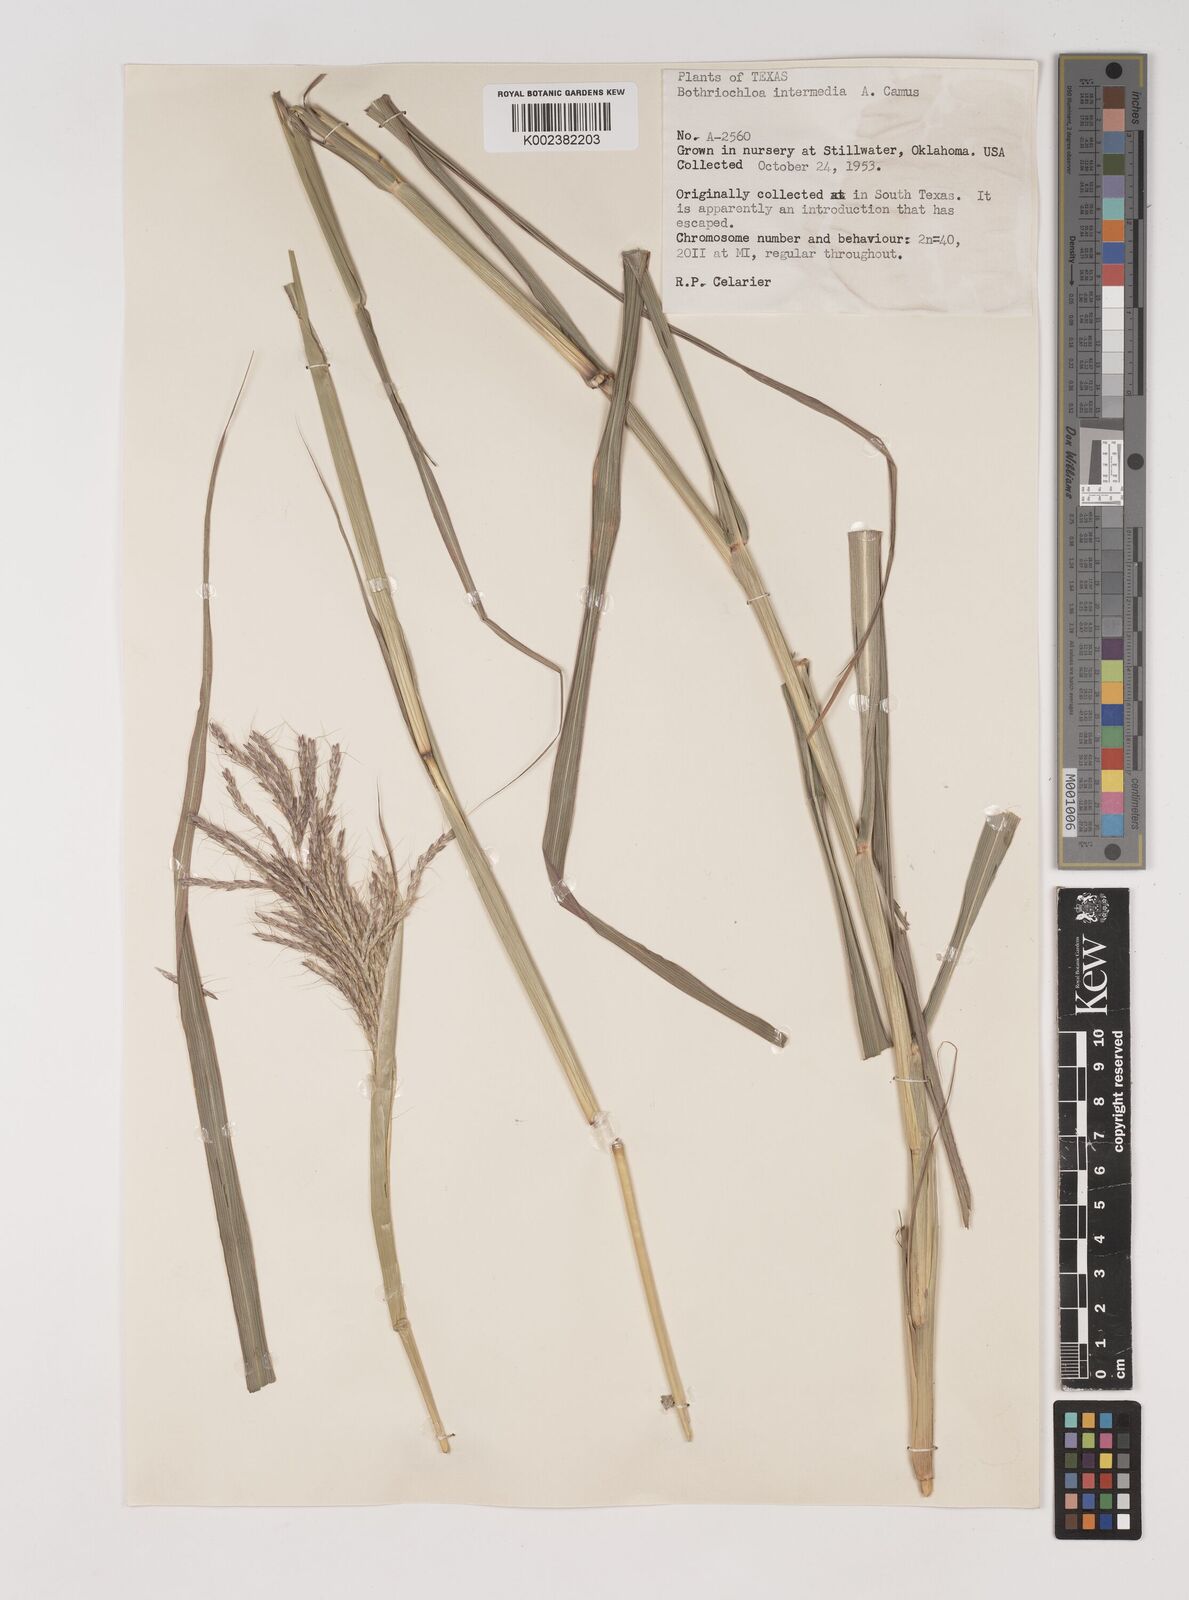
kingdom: Plantae
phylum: Tracheophyta
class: Liliopsida
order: Poales
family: Poaceae
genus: Bothriochloa
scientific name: Bothriochloa bladhii
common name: Caucasian bluestem
